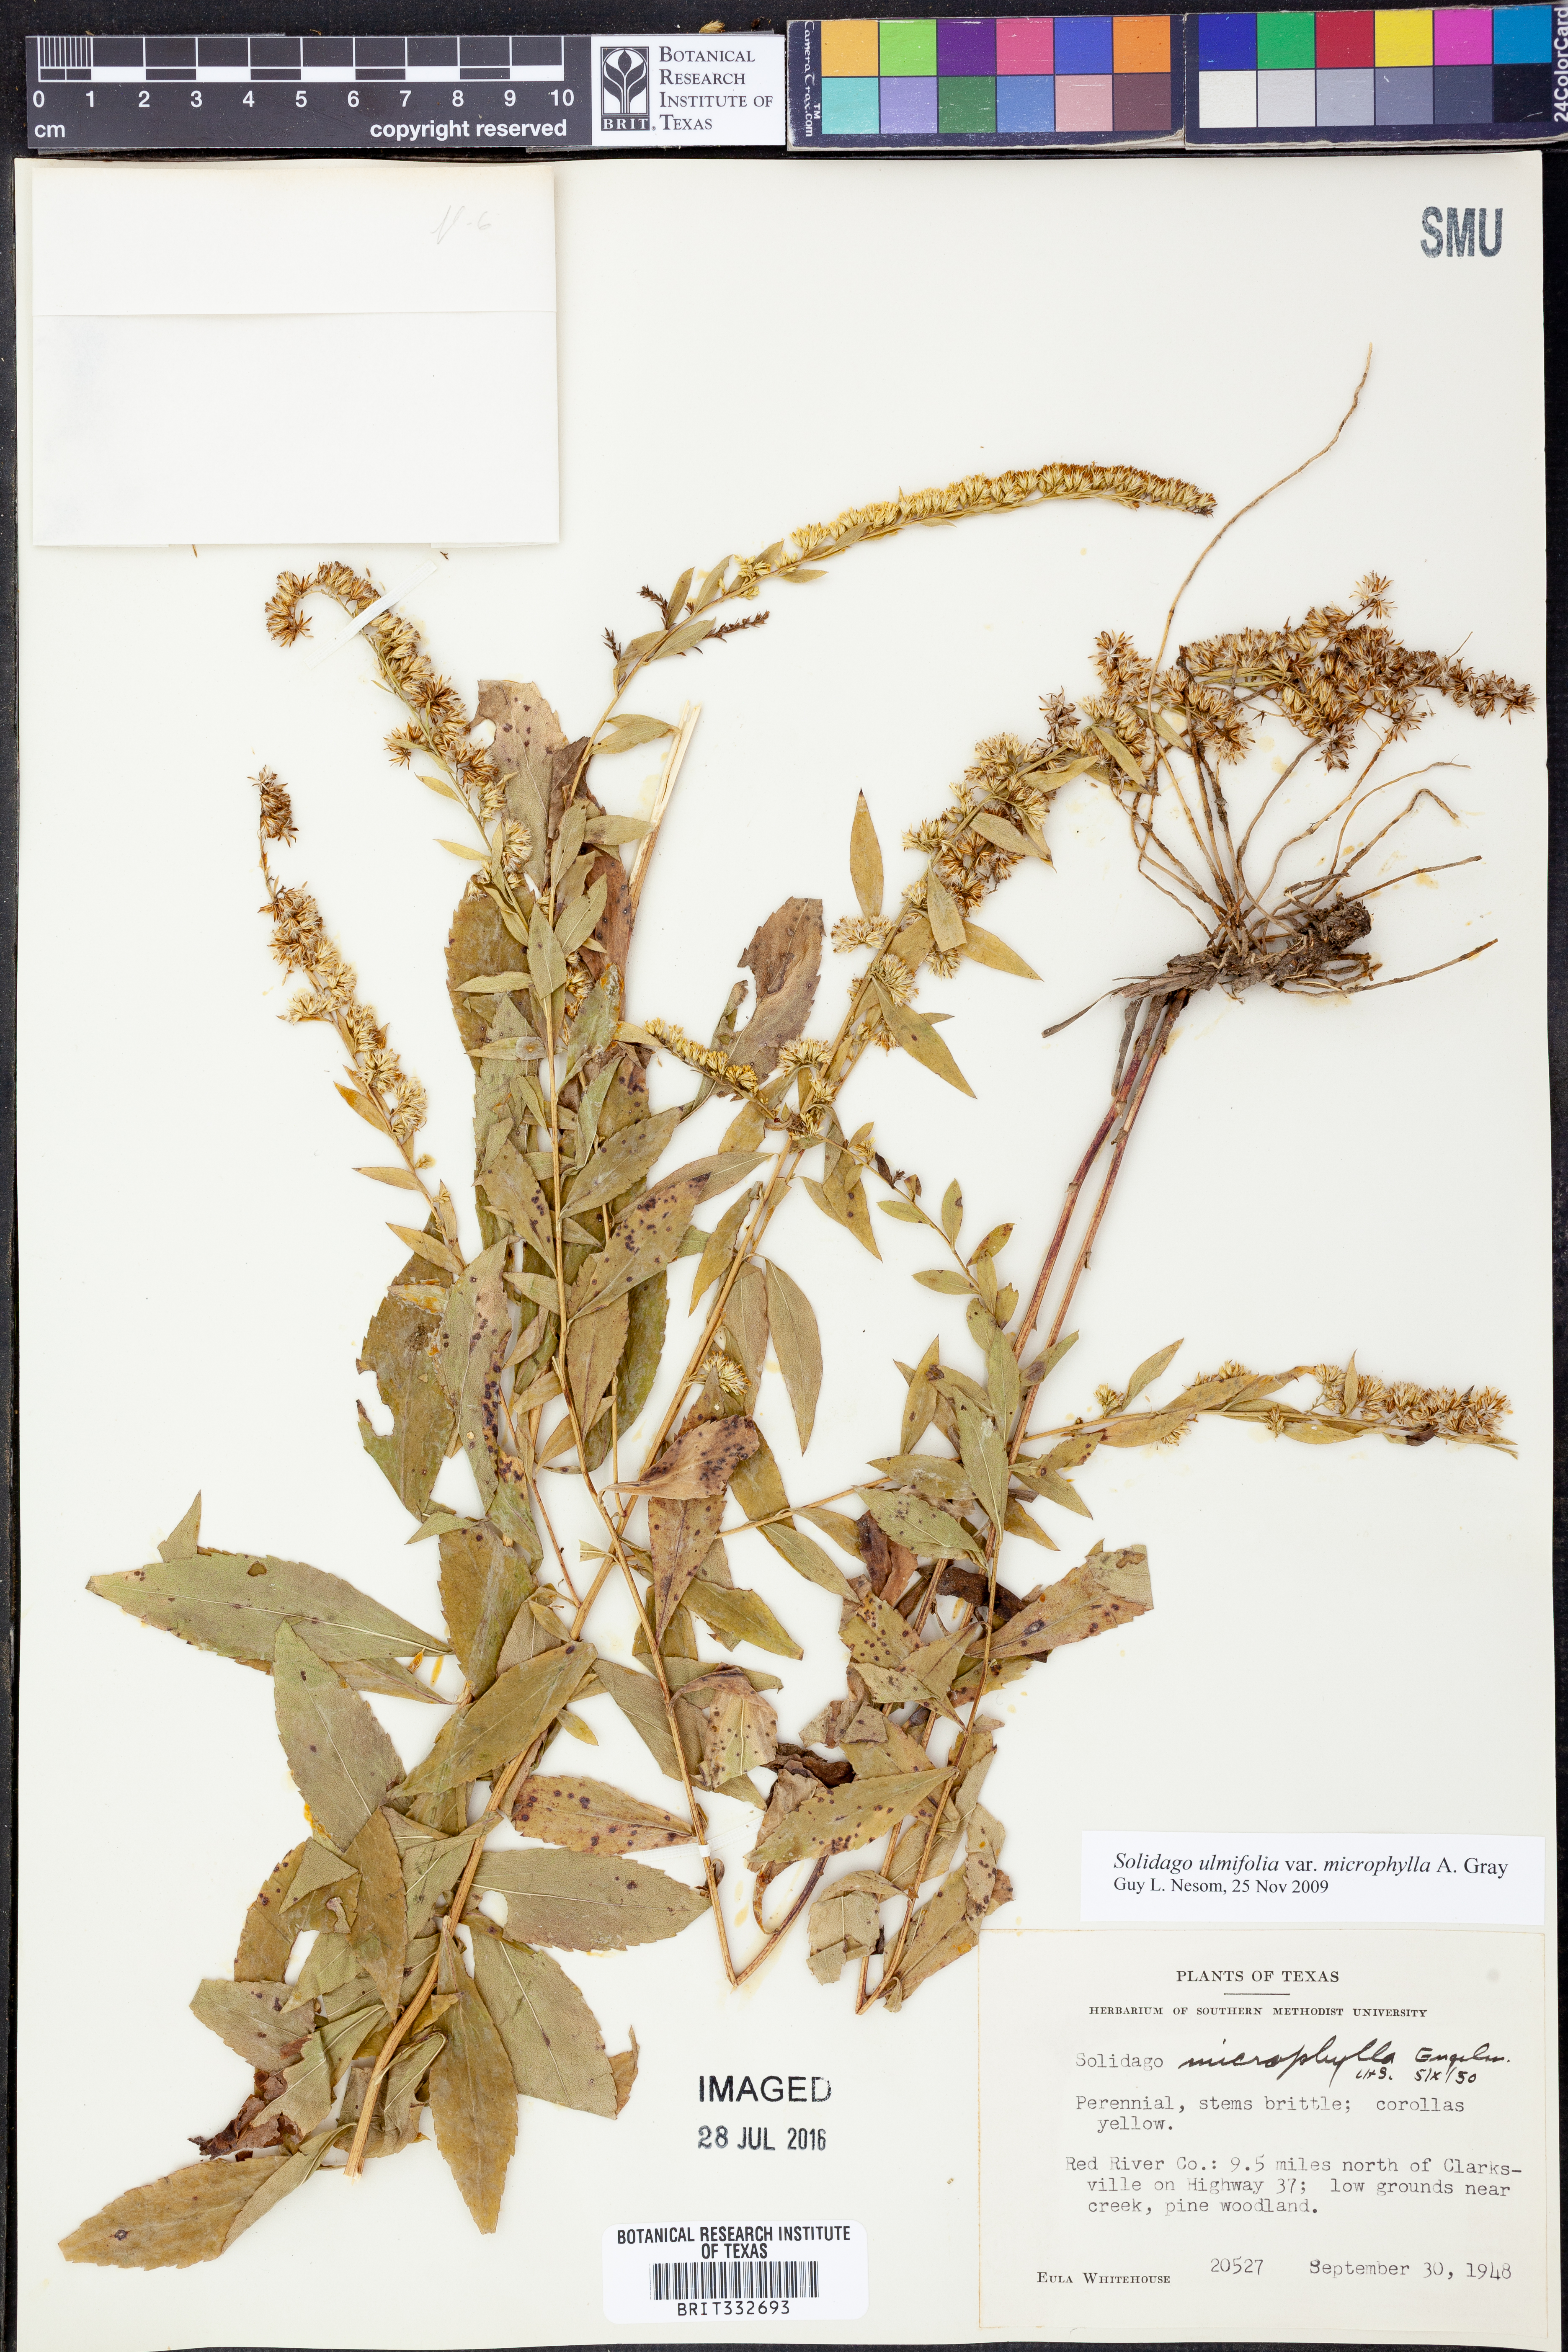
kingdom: Plantae
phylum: Tracheophyta
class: Magnoliopsida
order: Asterales
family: Asteraceae
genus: Solidago
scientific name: Solidago delicatula
